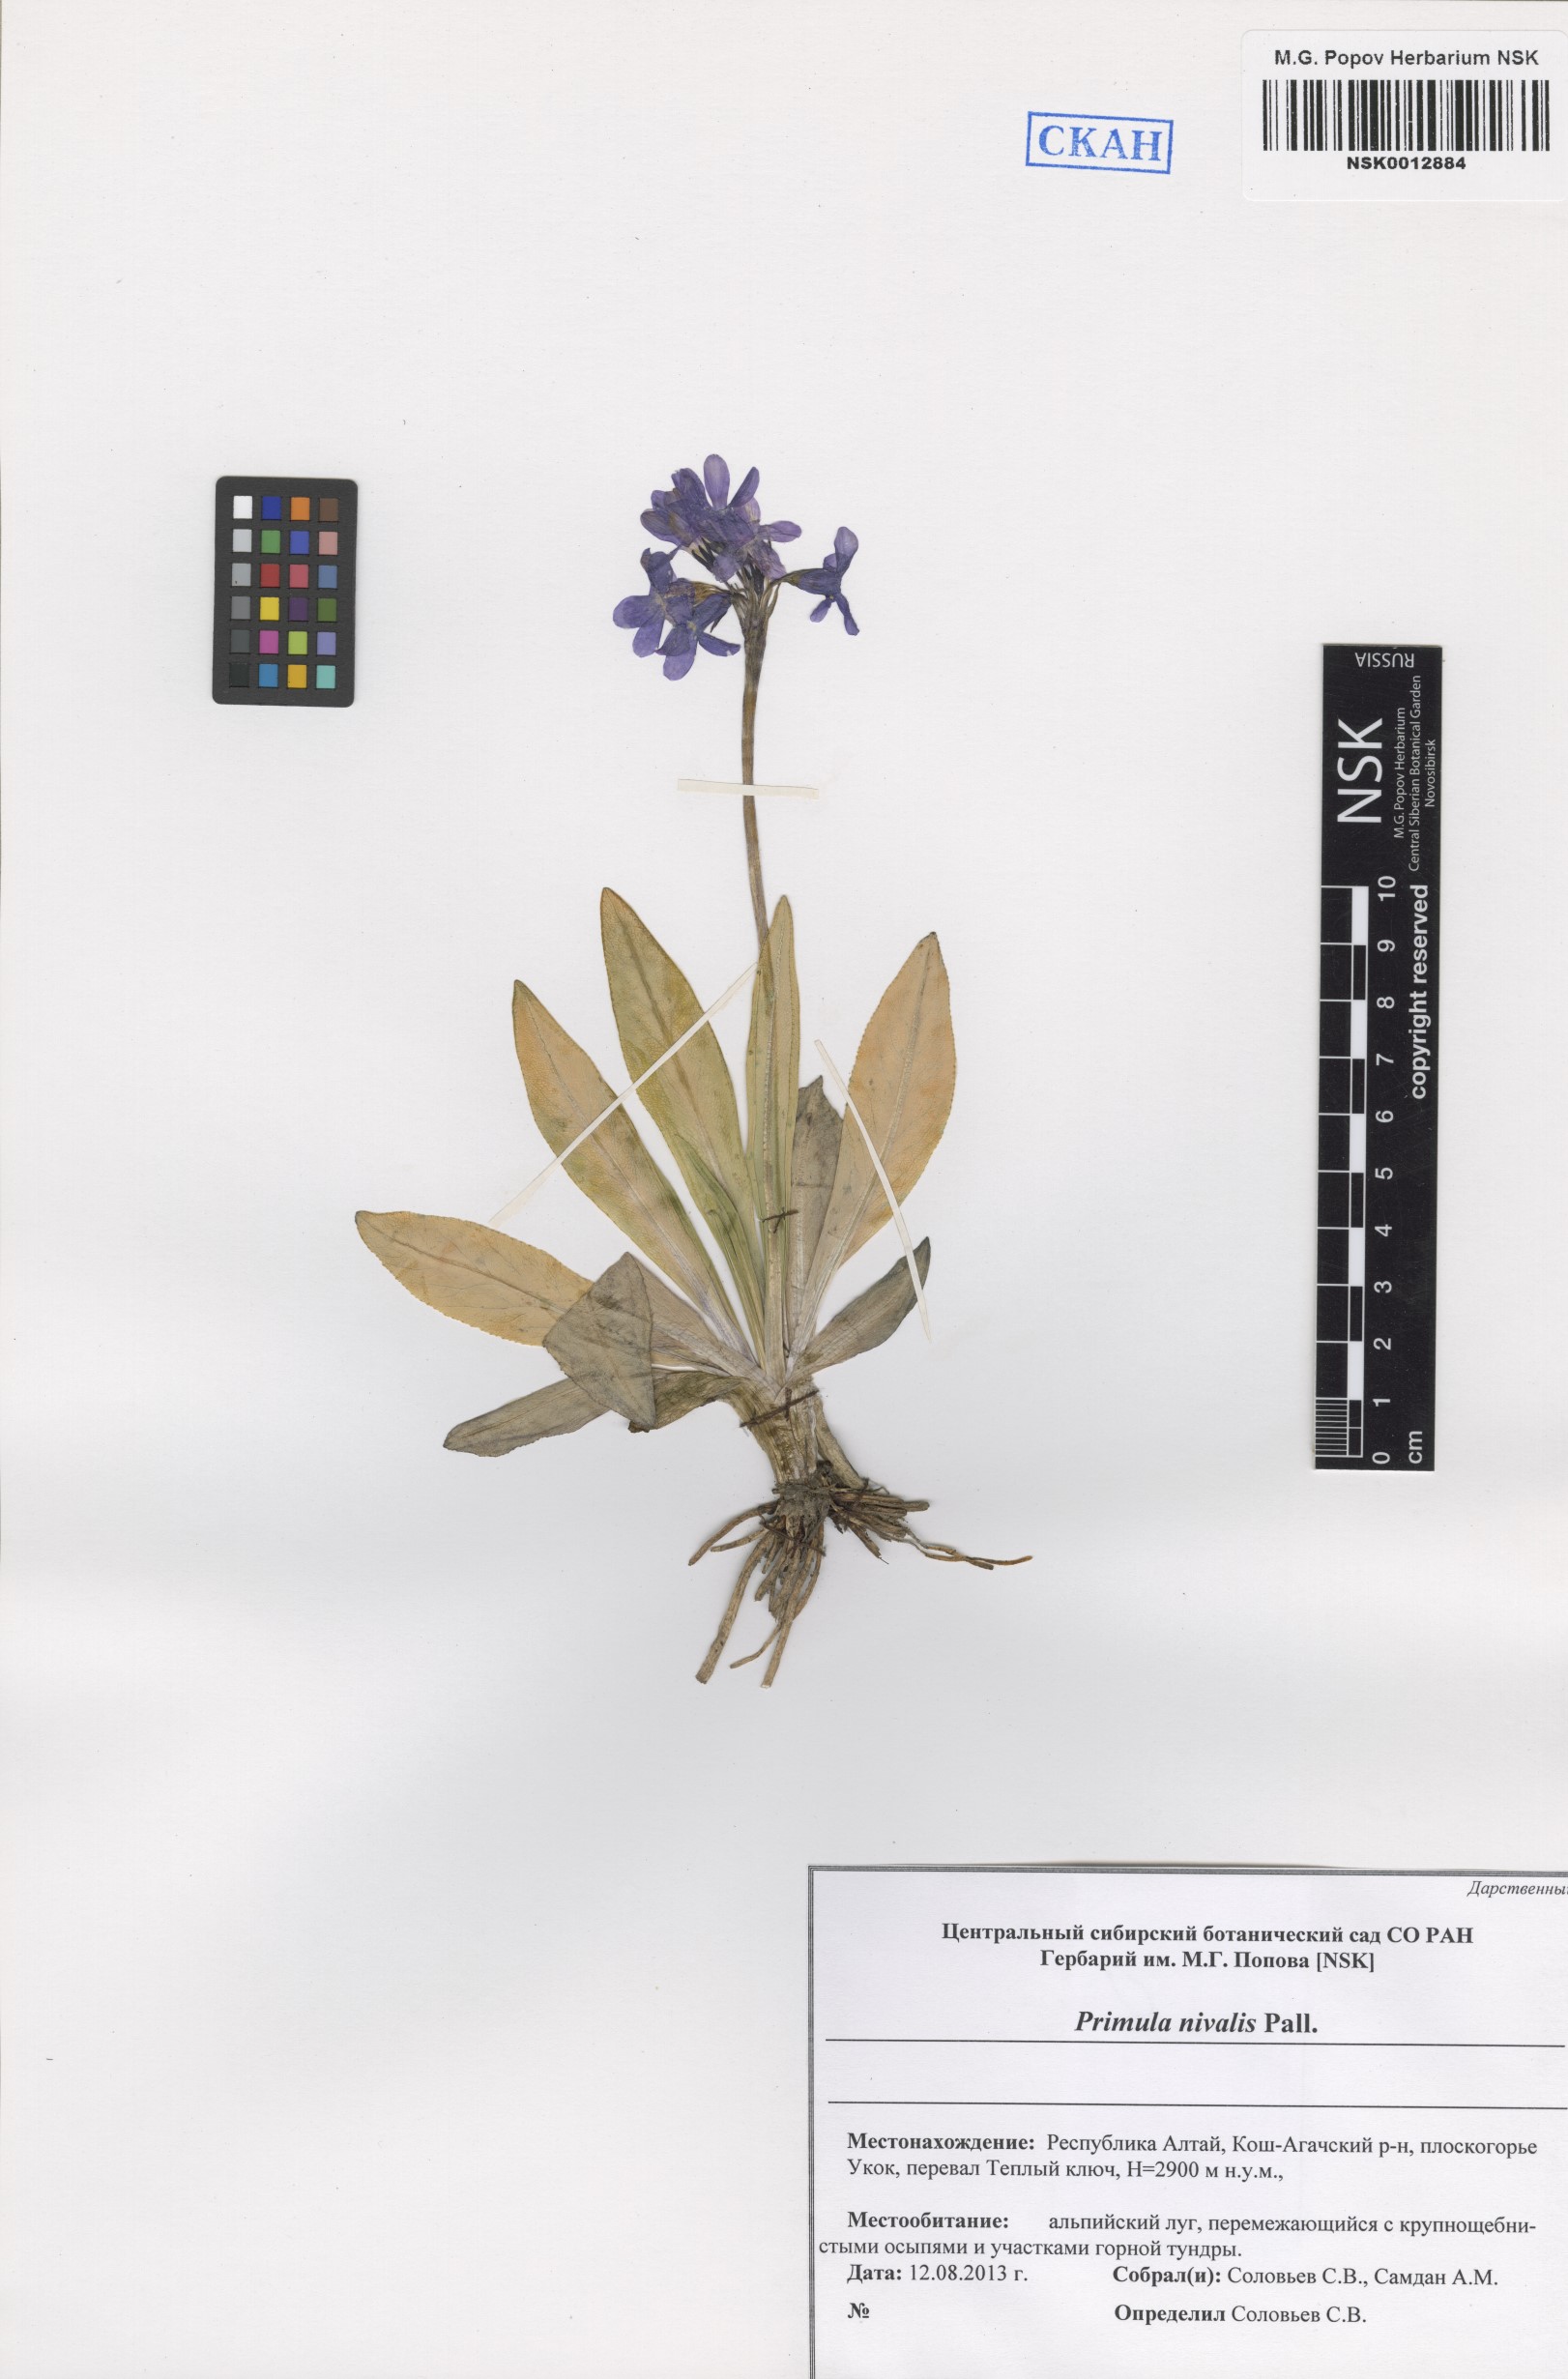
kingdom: Plantae
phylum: Tracheophyta
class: Magnoliopsida
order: Ericales
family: Primulaceae
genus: Primula
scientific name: Primula nivalis
